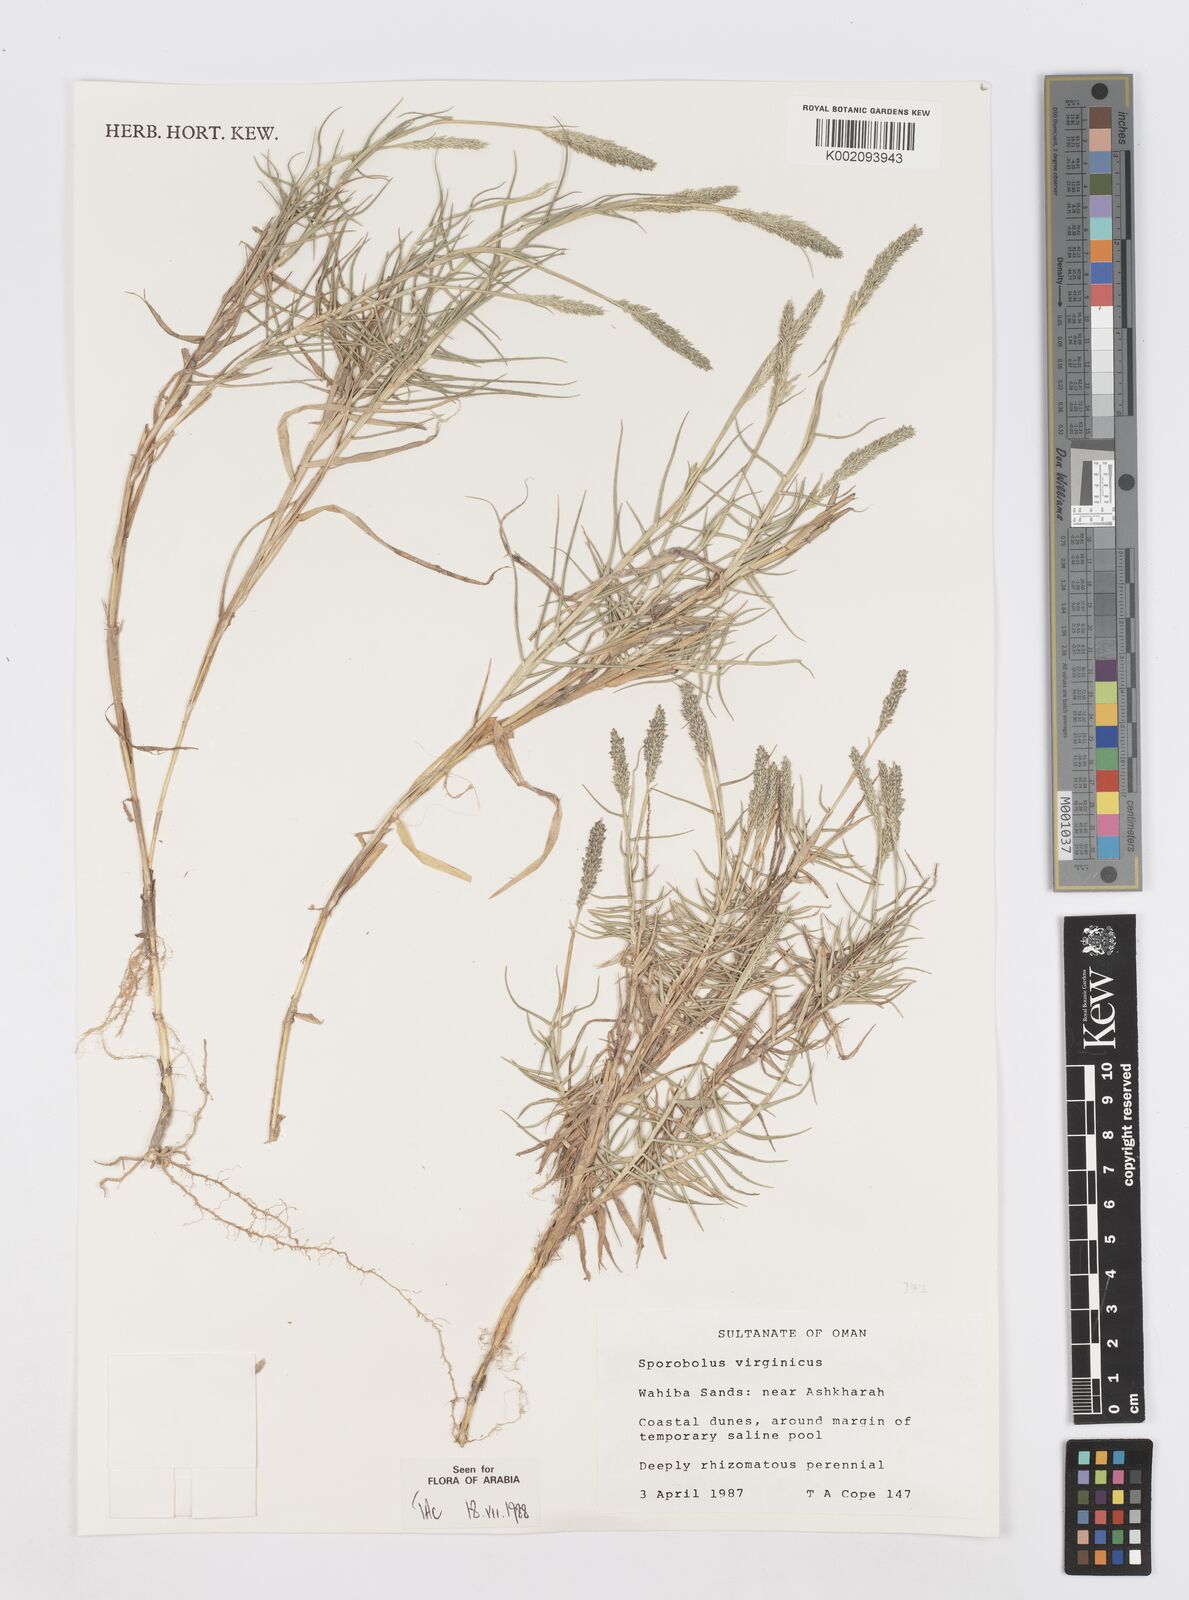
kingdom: Plantae
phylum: Tracheophyta
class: Liliopsida
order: Poales
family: Poaceae
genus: Sporobolus
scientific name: Sporobolus virginicus
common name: Beach dropseed
